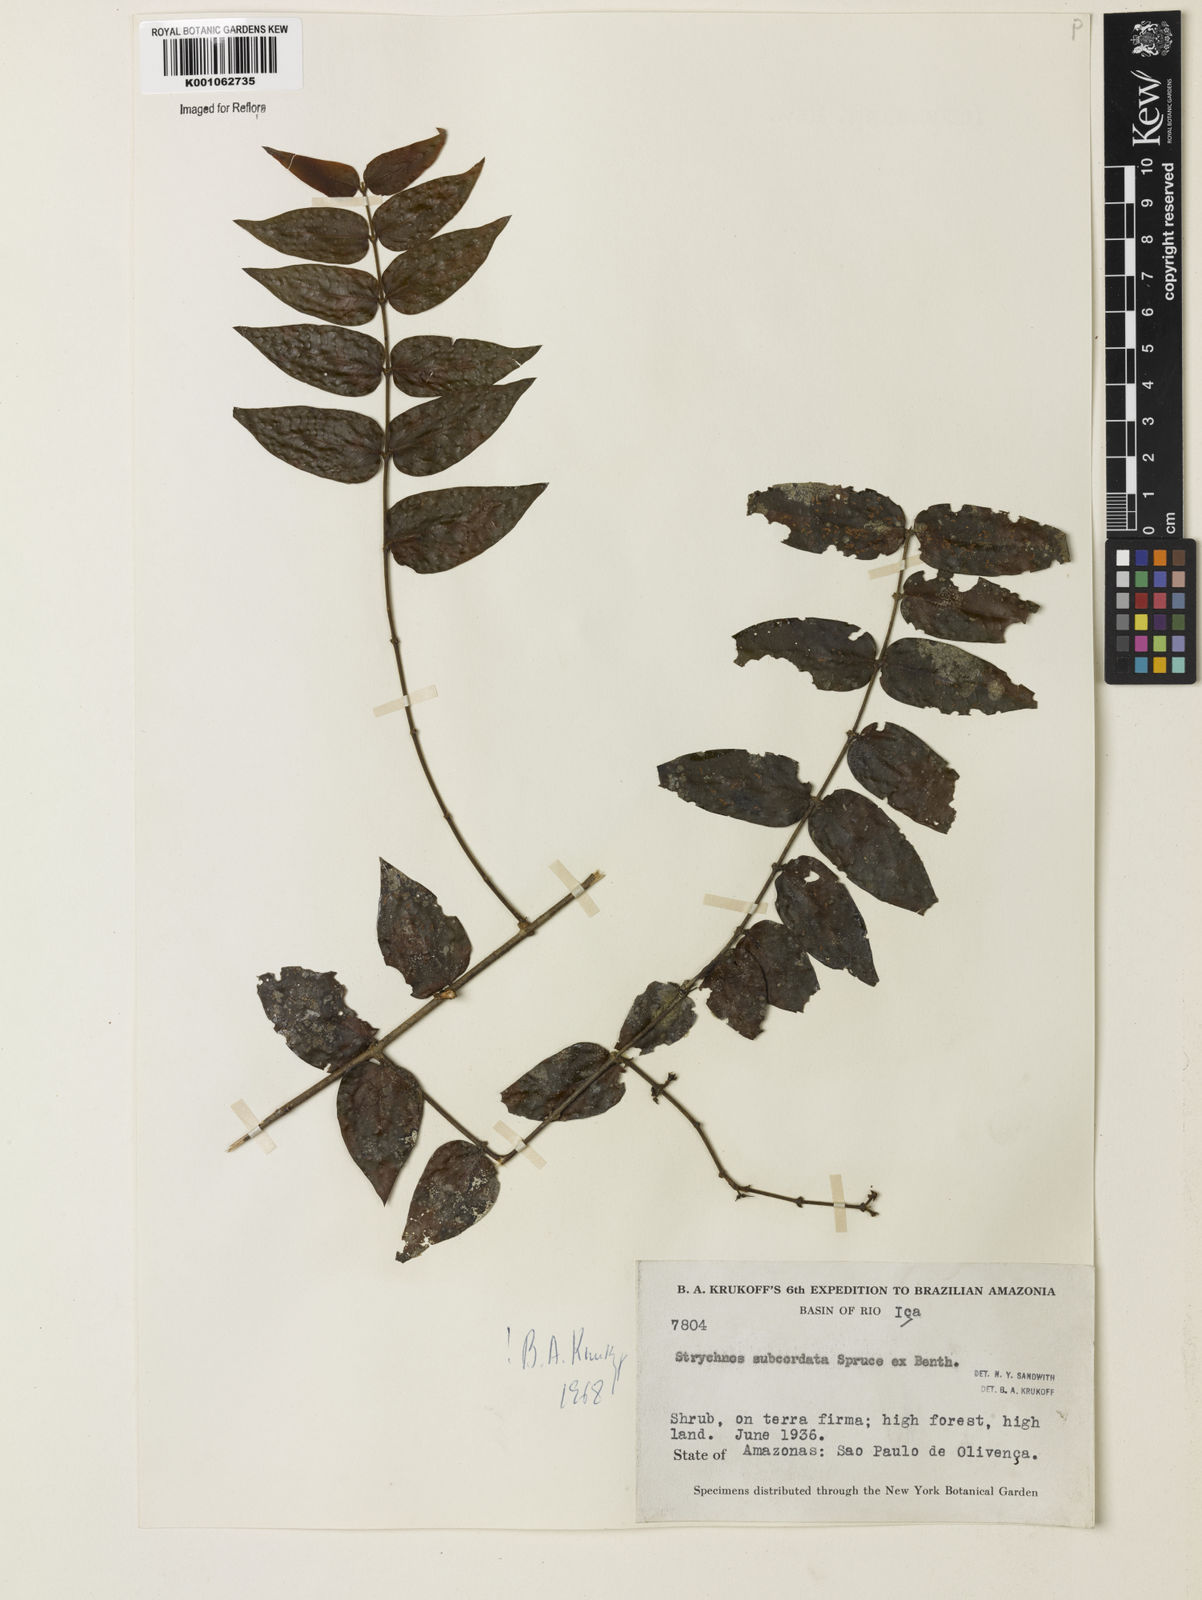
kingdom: Plantae
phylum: Tracheophyta
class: Magnoliopsida
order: Gentianales
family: Loganiaceae
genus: Strychnos
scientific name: Strychnos subcordata
